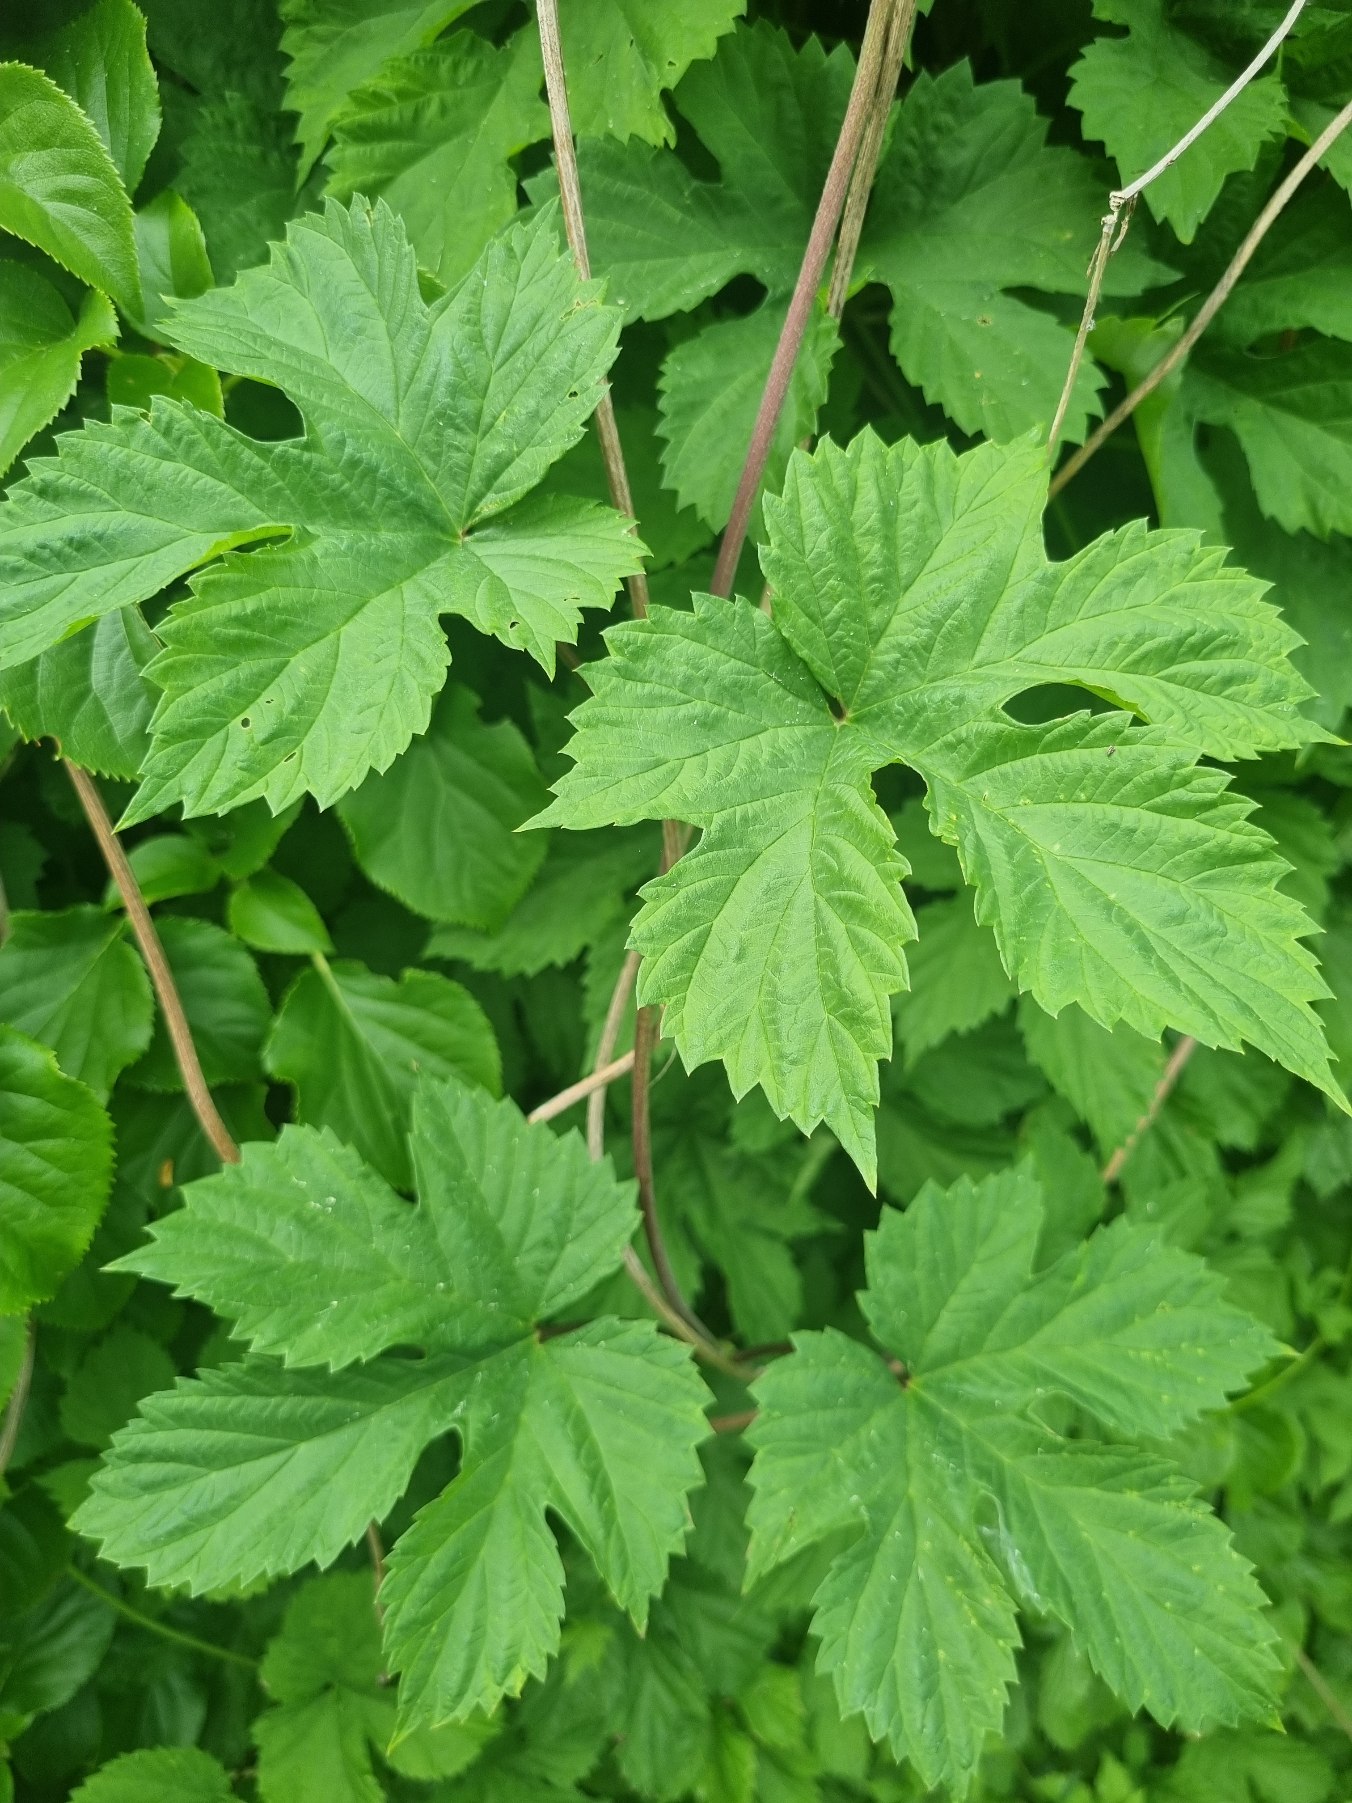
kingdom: Plantae
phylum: Tracheophyta
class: Magnoliopsida
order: Rosales
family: Cannabaceae
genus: Humulus
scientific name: Humulus lupulus
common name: Humle
